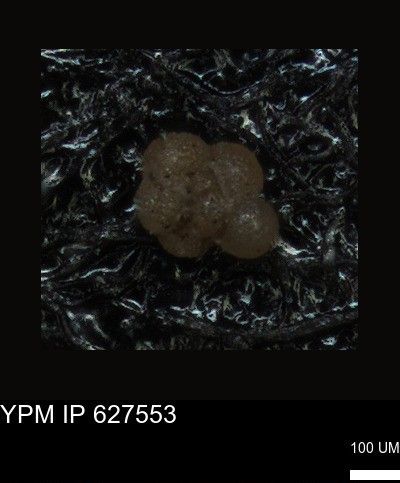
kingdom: Chromista
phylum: Foraminifera
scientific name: Foraminifera
